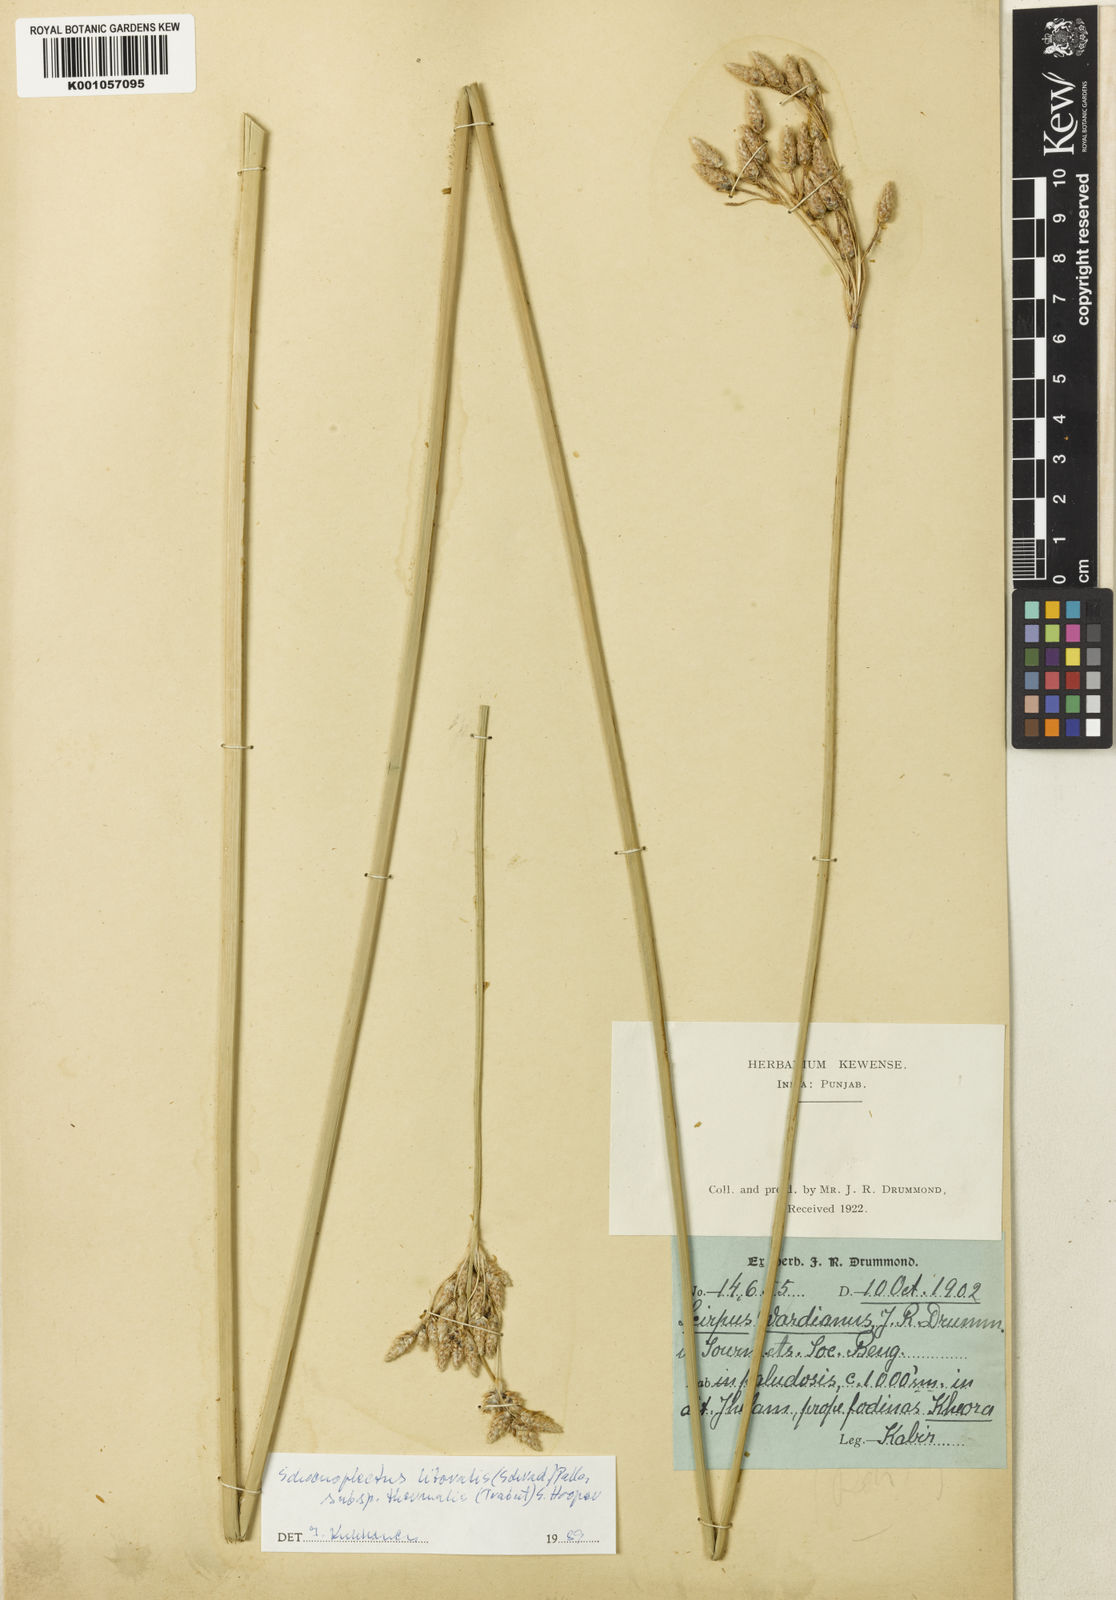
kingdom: Plantae
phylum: Tracheophyta
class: Liliopsida
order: Poales
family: Cyperaceae
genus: Schoenoplectus
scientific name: Schoenoplectus litoralis
